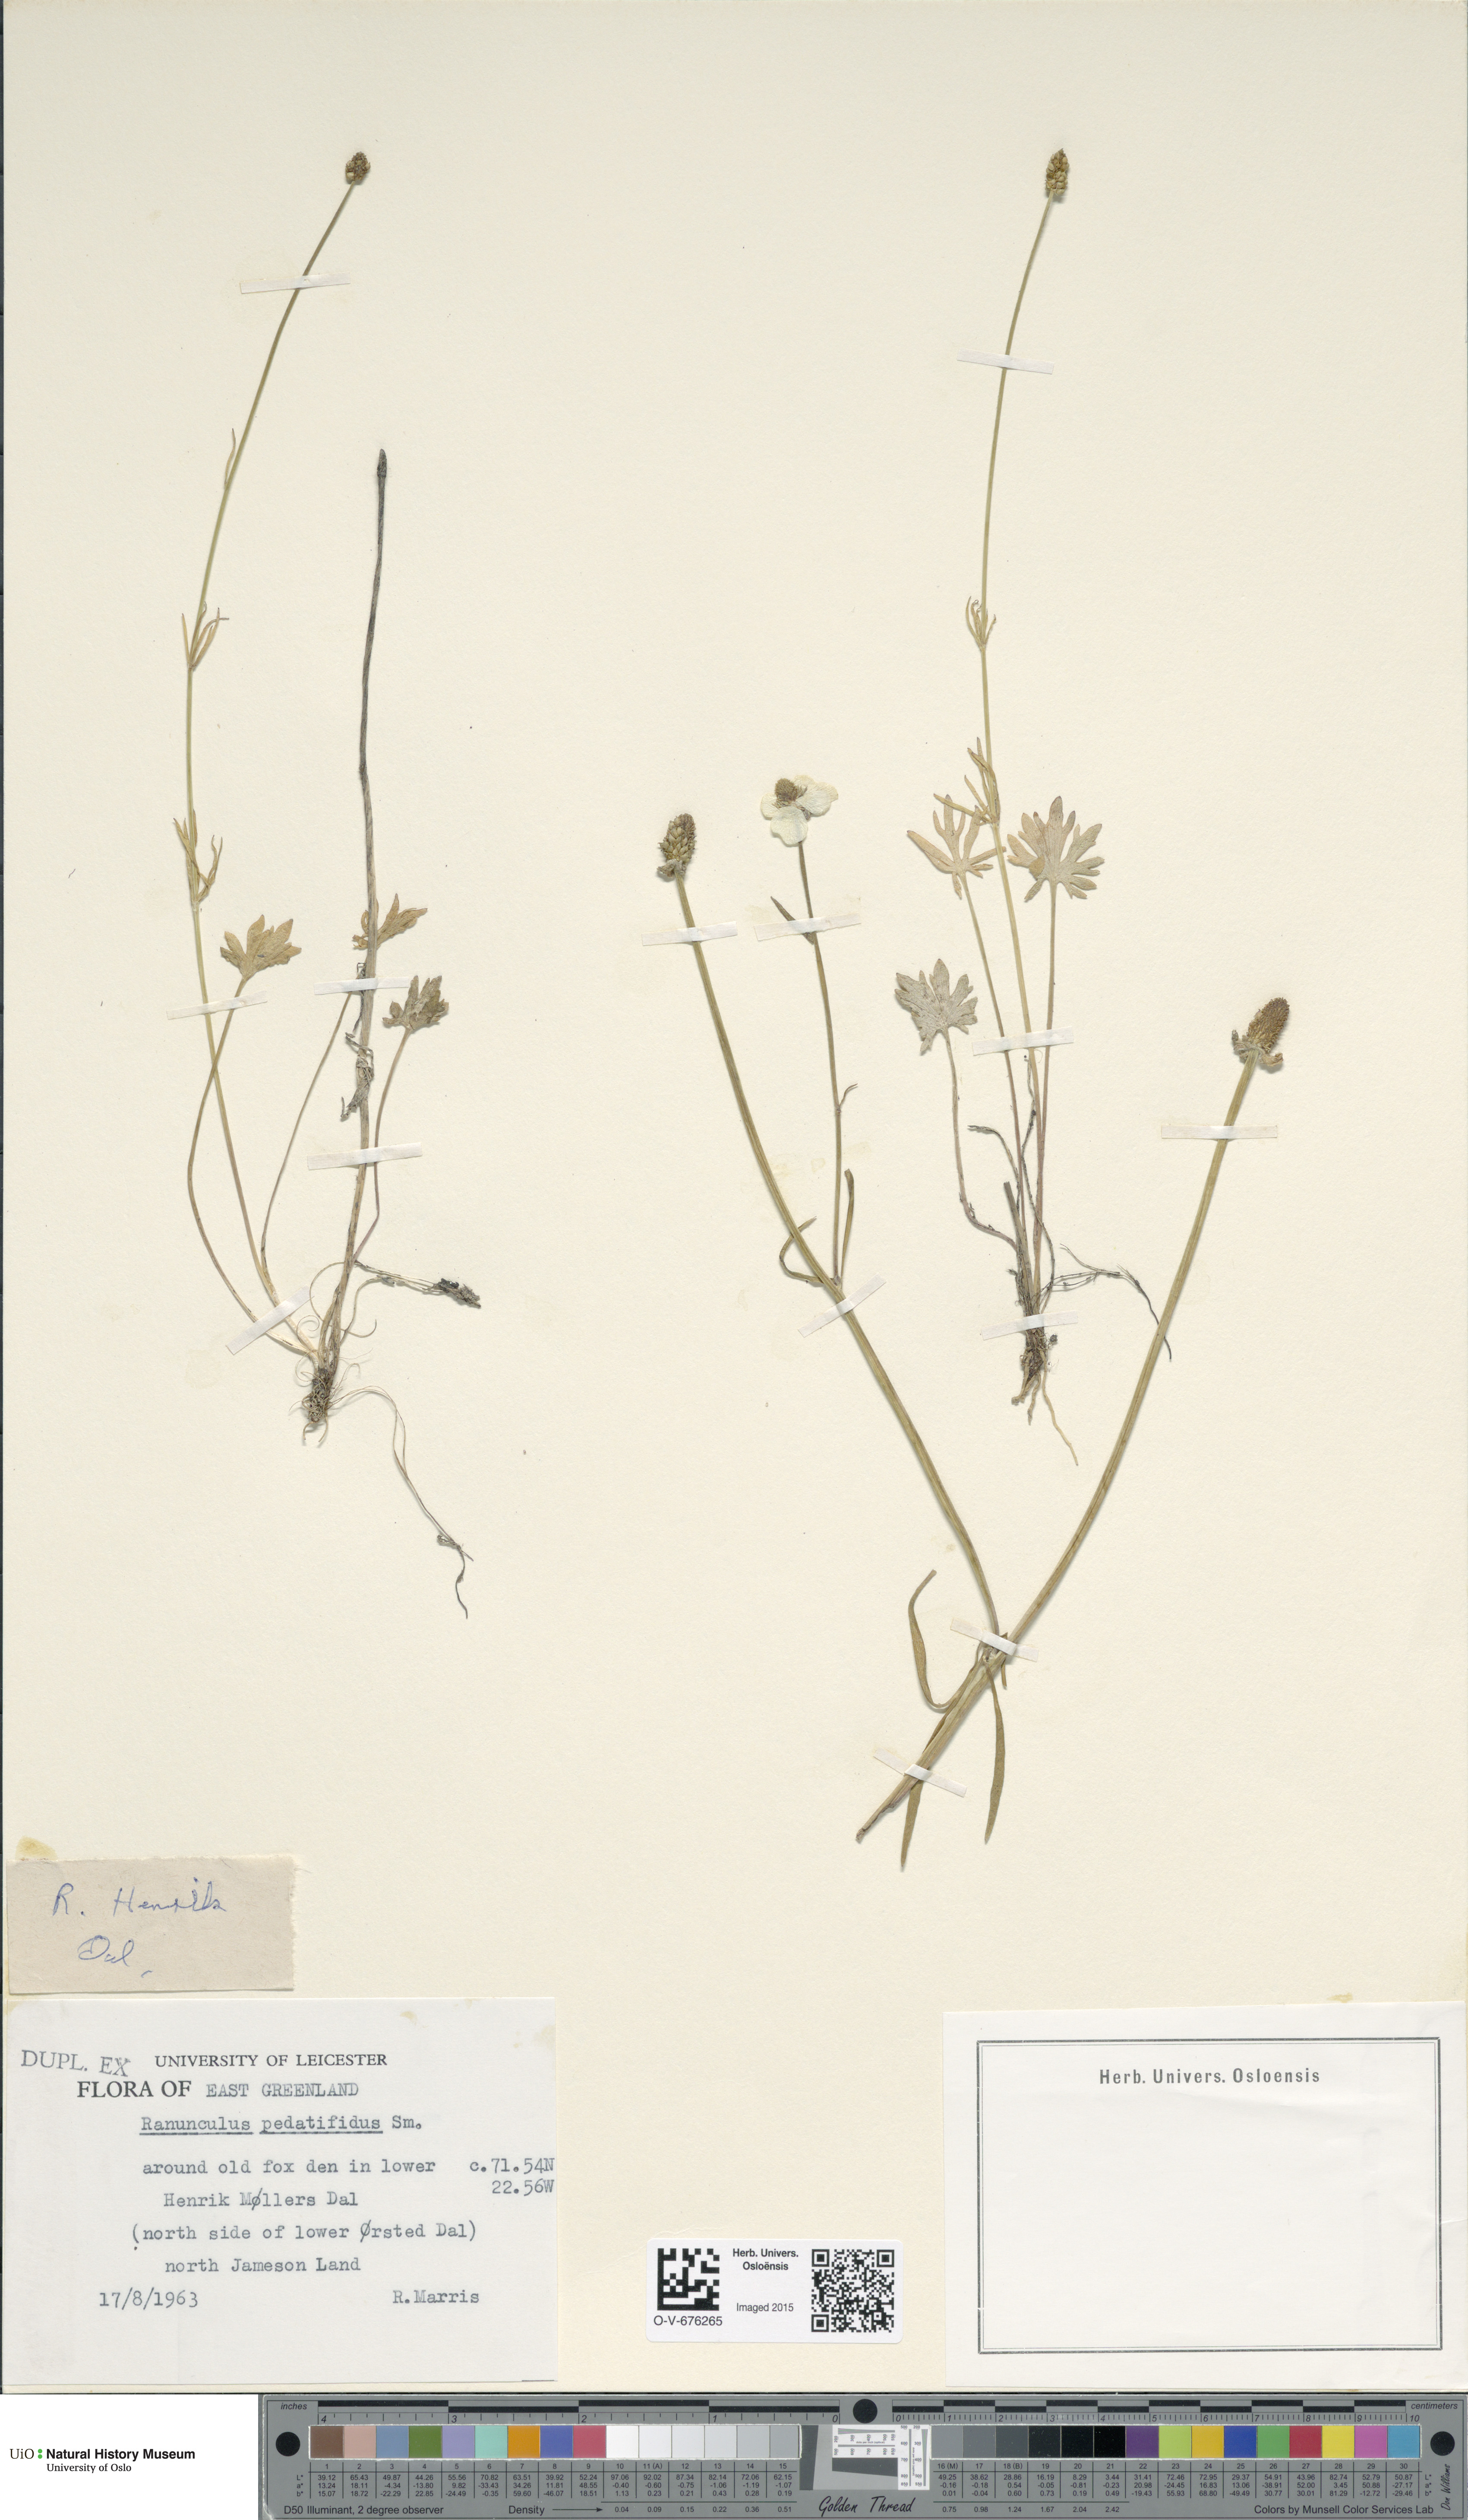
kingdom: Plantae
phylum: Tracheophyta
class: Magnoliopsida
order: Ranunculales
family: Ranunculaceae
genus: Ranunculus
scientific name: Ranunculus pedatifidus
